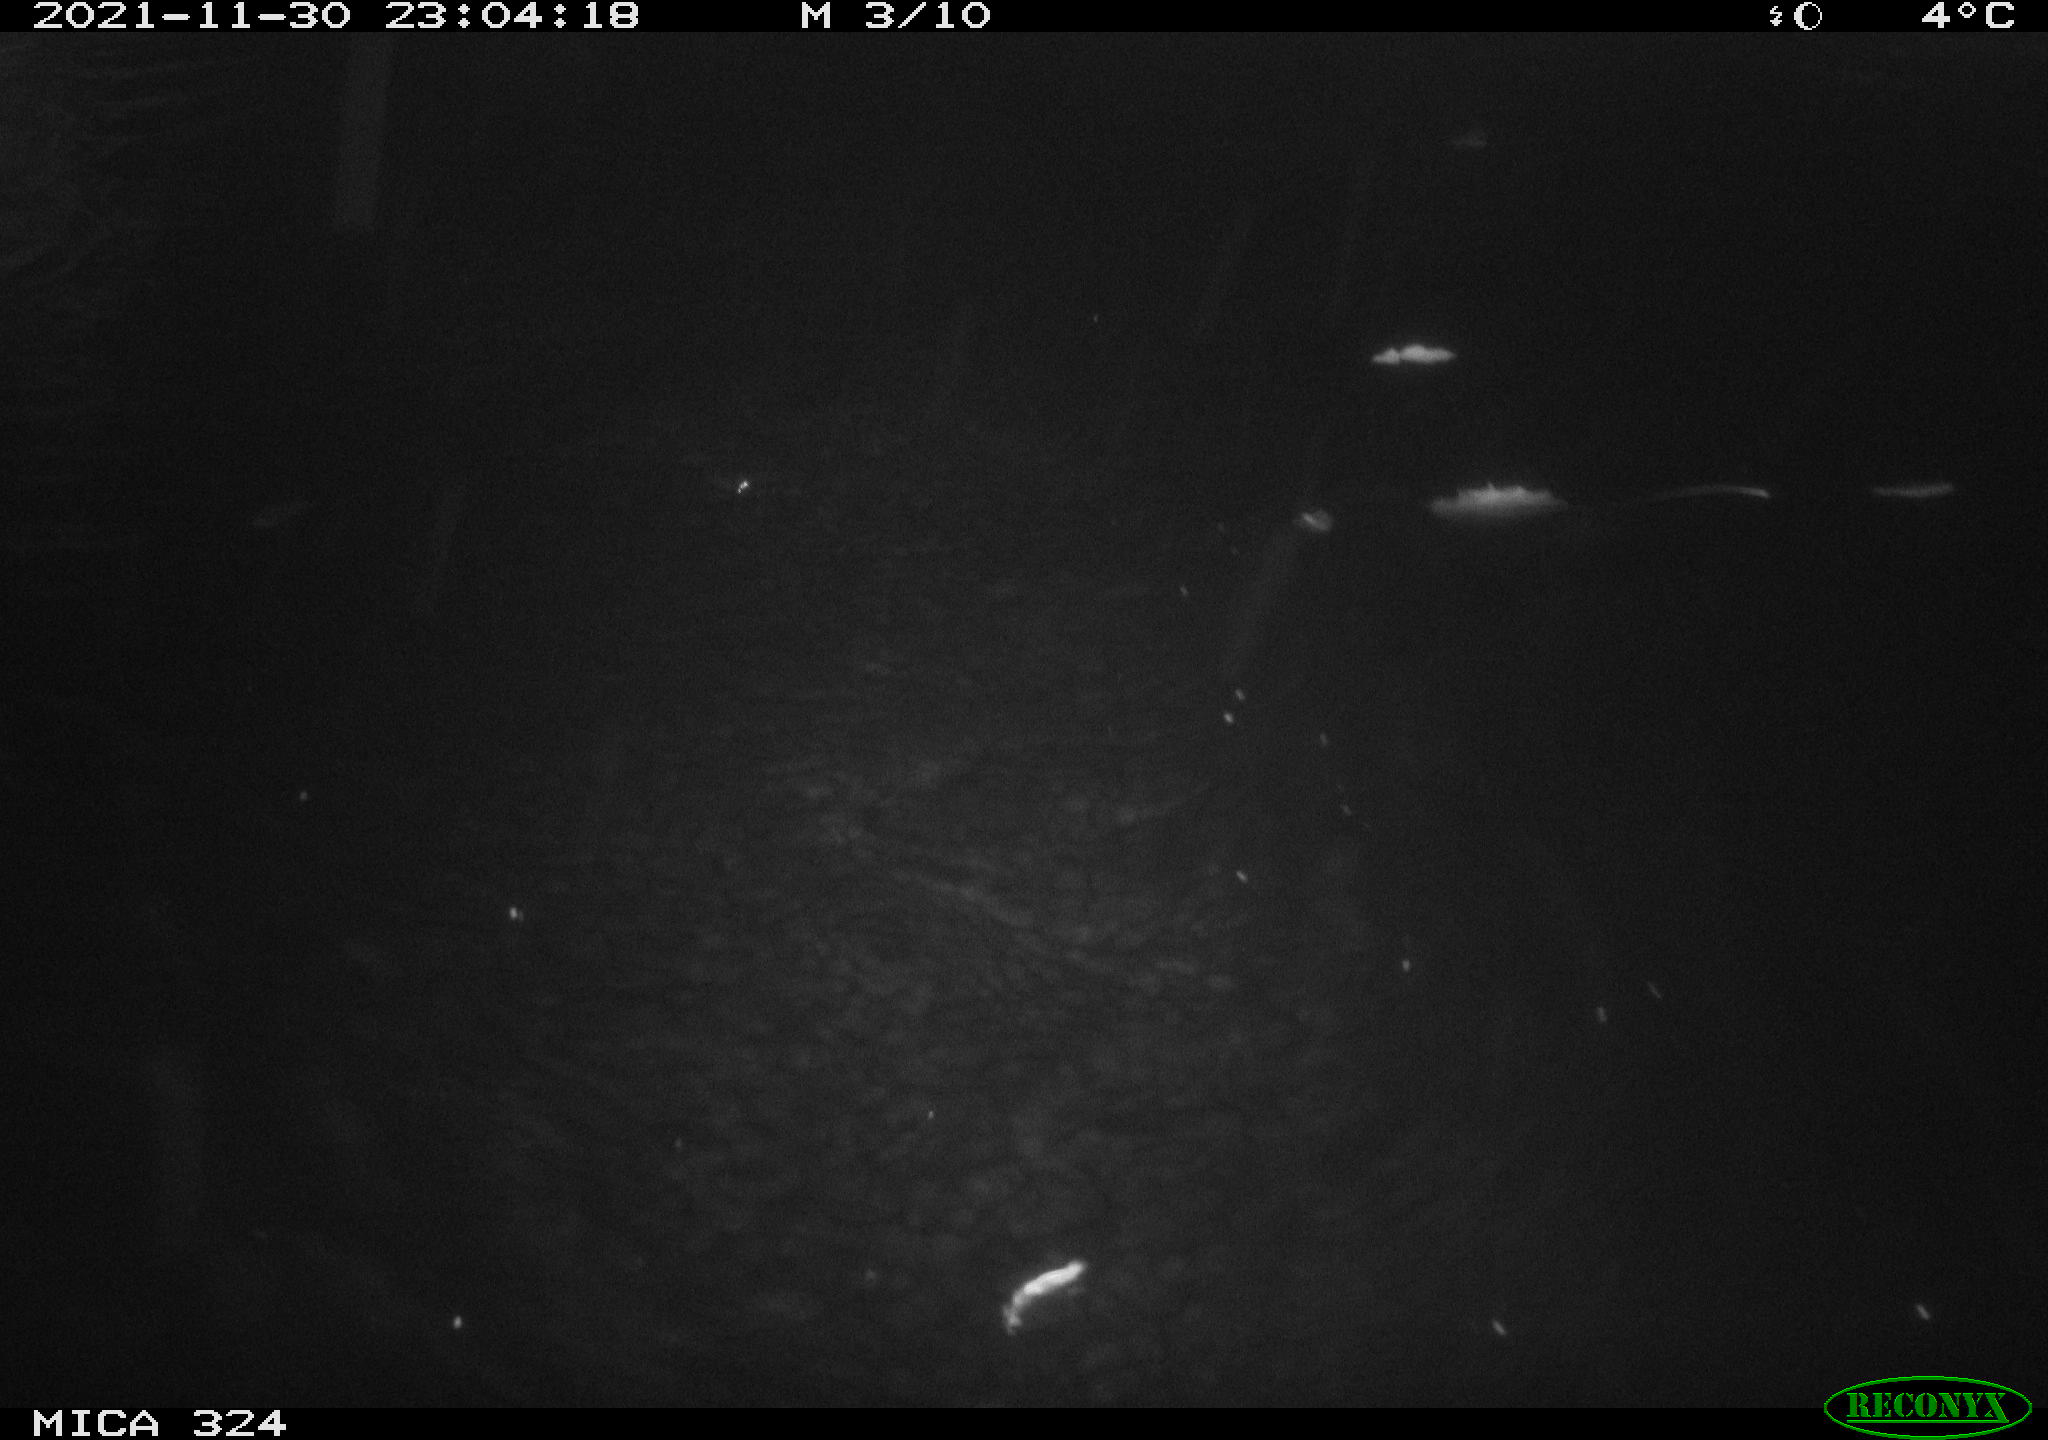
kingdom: Animalia
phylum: Chordata
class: Mammalia
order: Rodentia
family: Myocastoridae
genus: Myocastor
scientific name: Myocastor coypus
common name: Coypu
